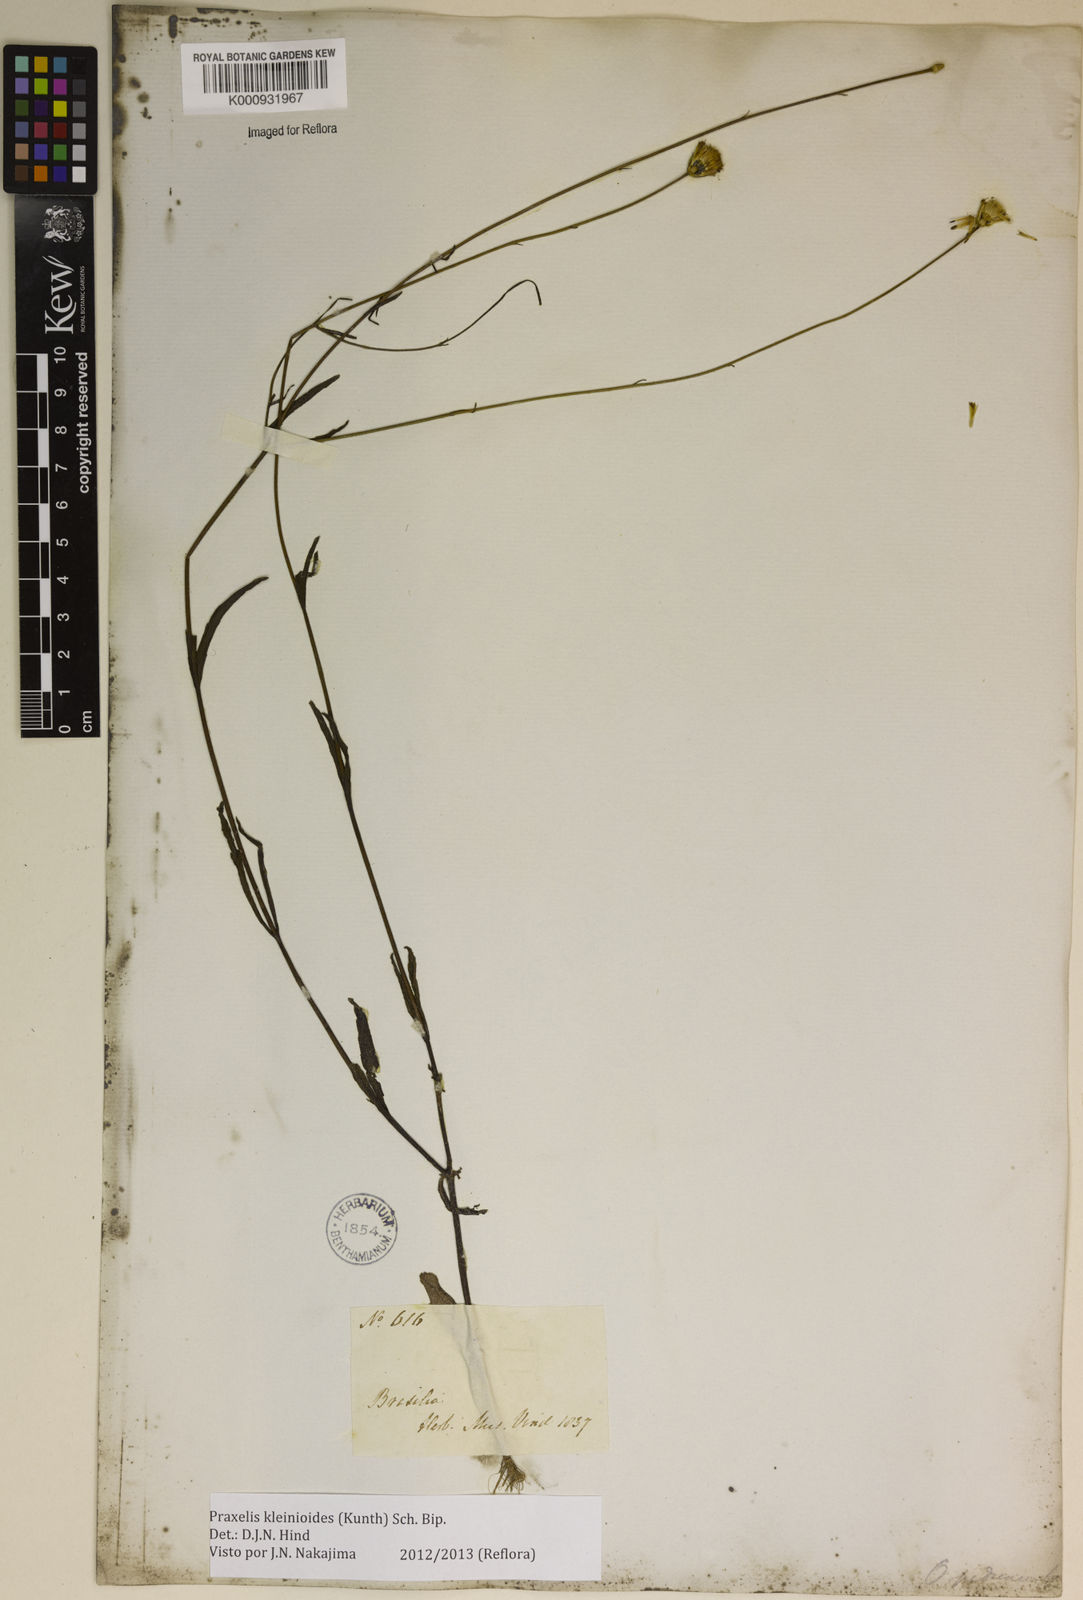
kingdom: Plantae
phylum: Tracheophyta
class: Magnoliopsida
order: Asterales
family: Asteraceae
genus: Praxelis
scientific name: Praxelis kleinioides
